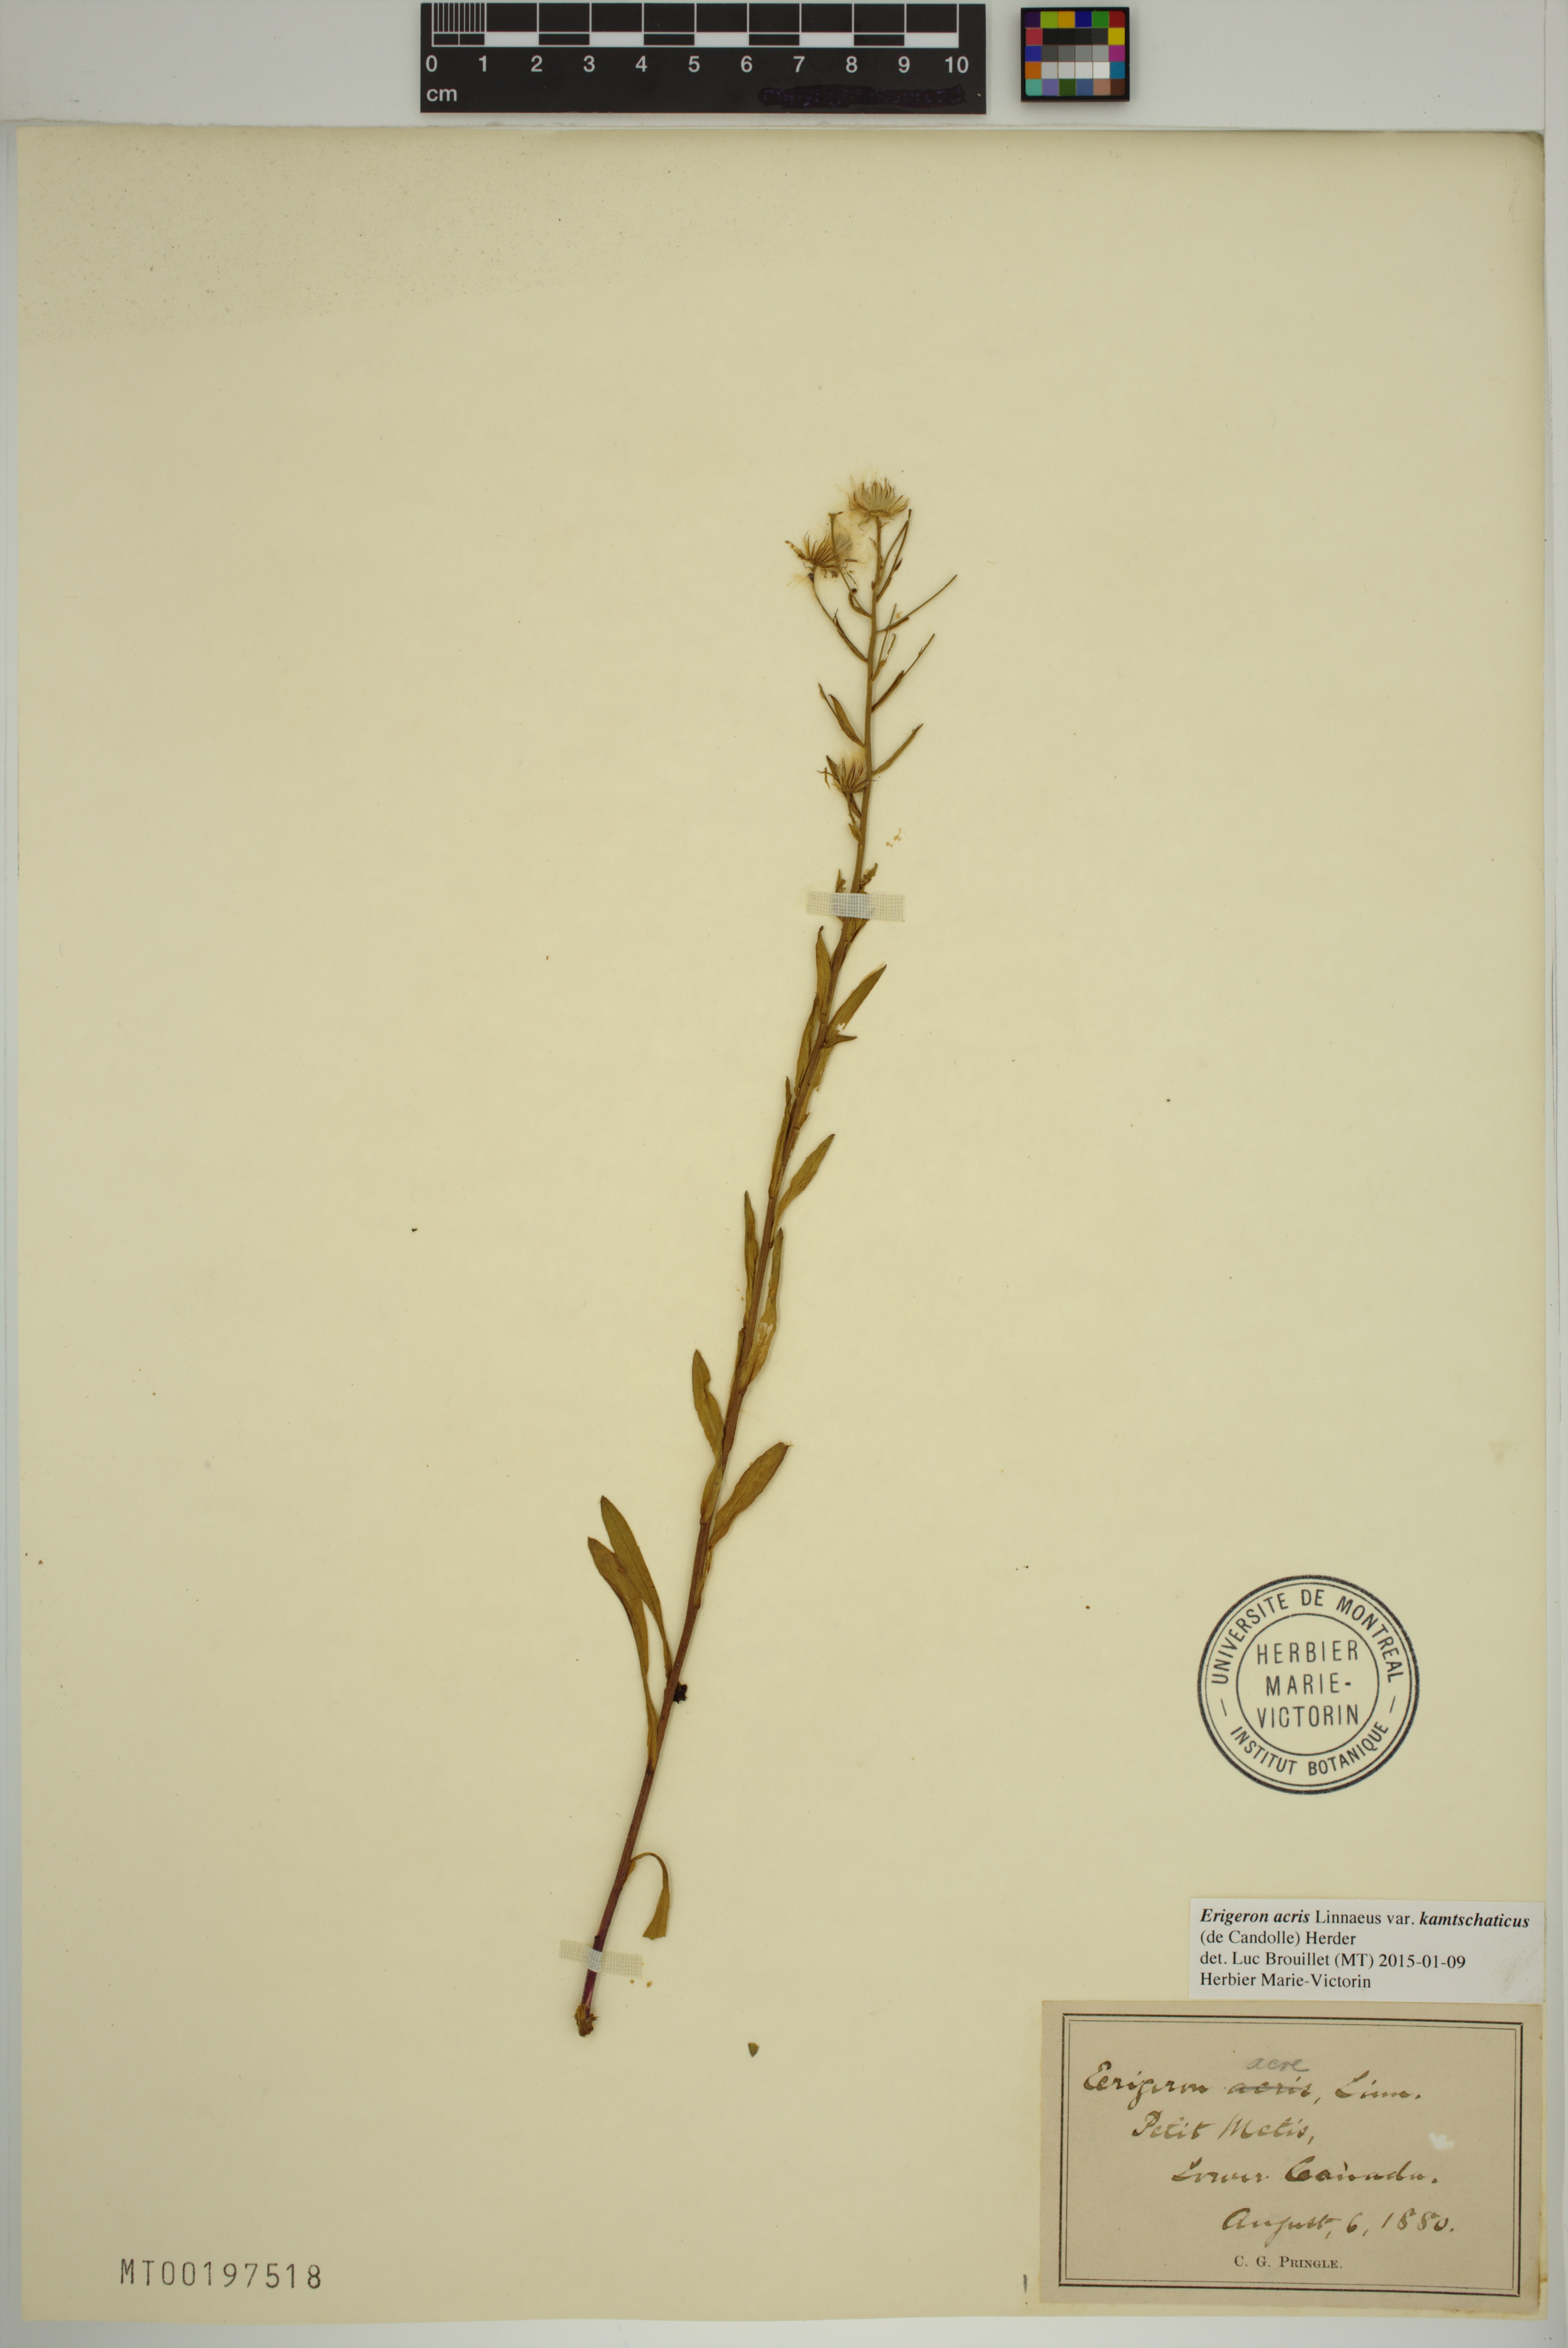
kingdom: Plantae
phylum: Tracheophyta
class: Magnoliopsida
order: Asterales
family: Asteraceae
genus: Erigeron
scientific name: Erigeron kamtschaticus
